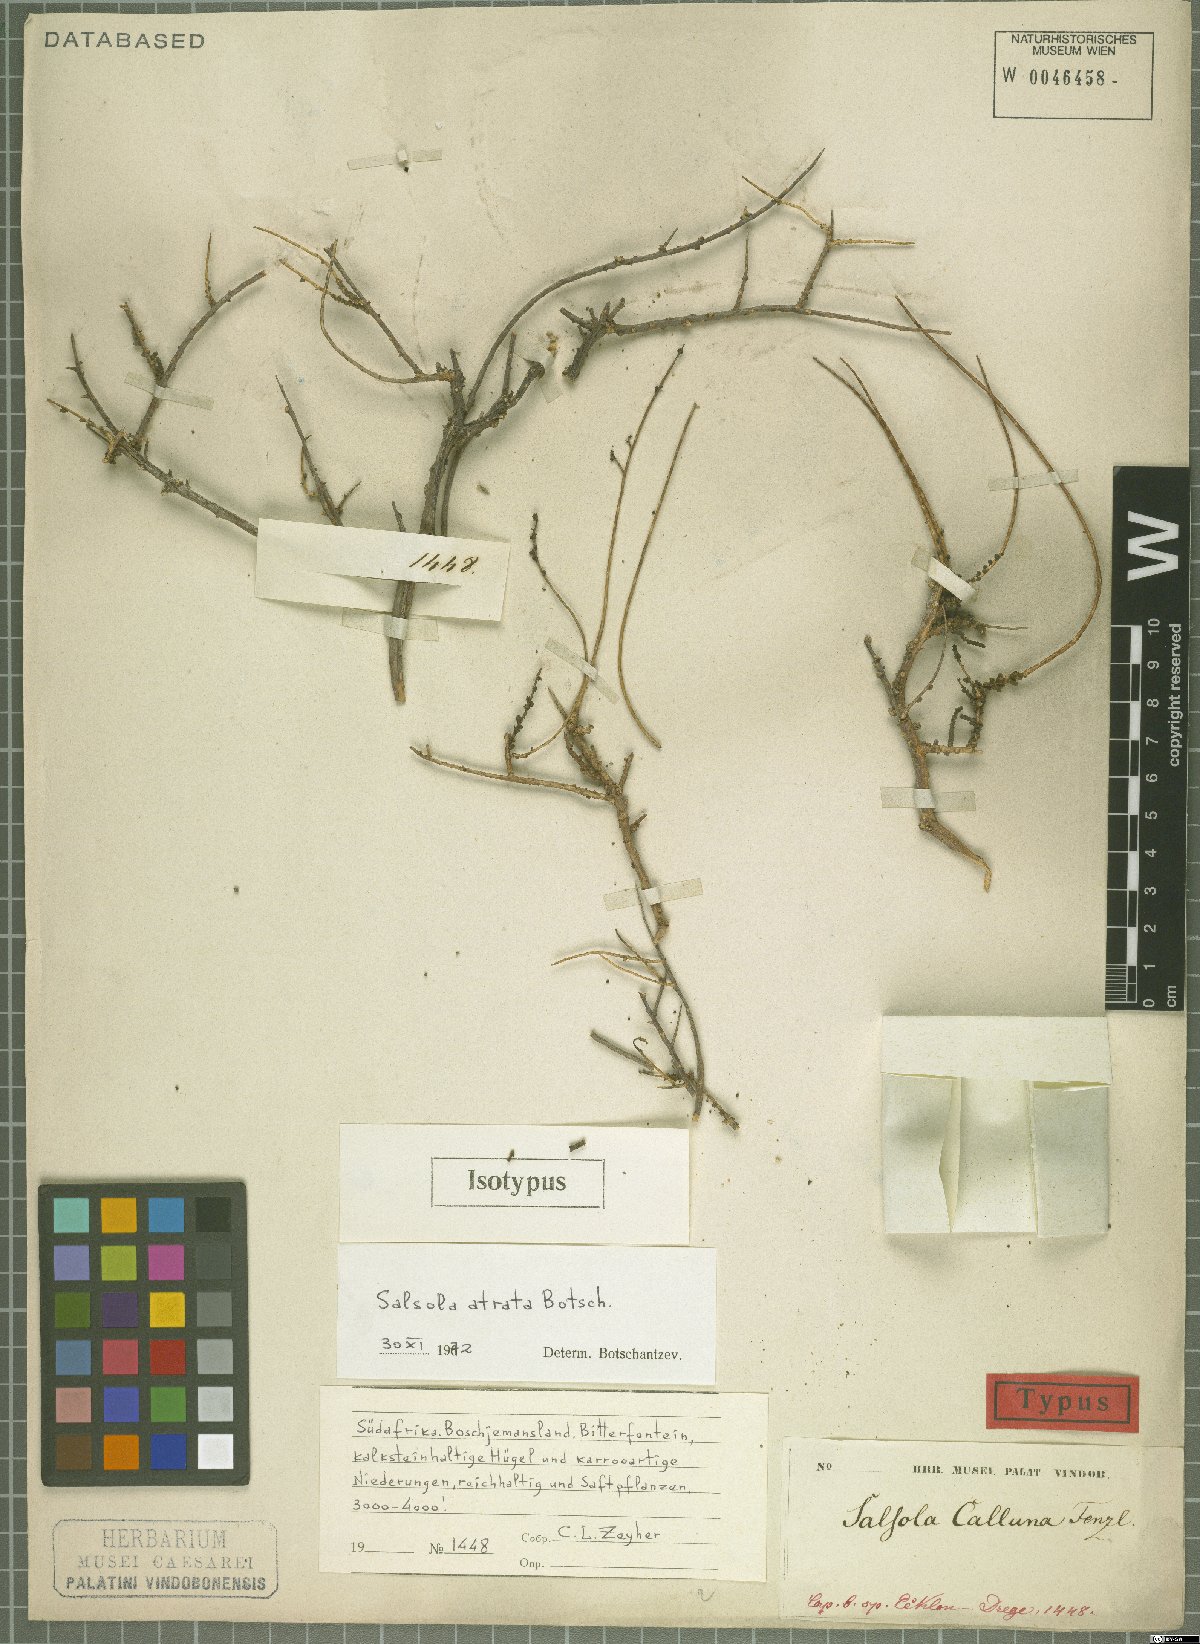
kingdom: Plantae
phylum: Tracheophyta
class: Magnoliopsida
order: Caryophyllales
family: Amaranthaceae
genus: Caroxylon
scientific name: Caroxylon atratum
